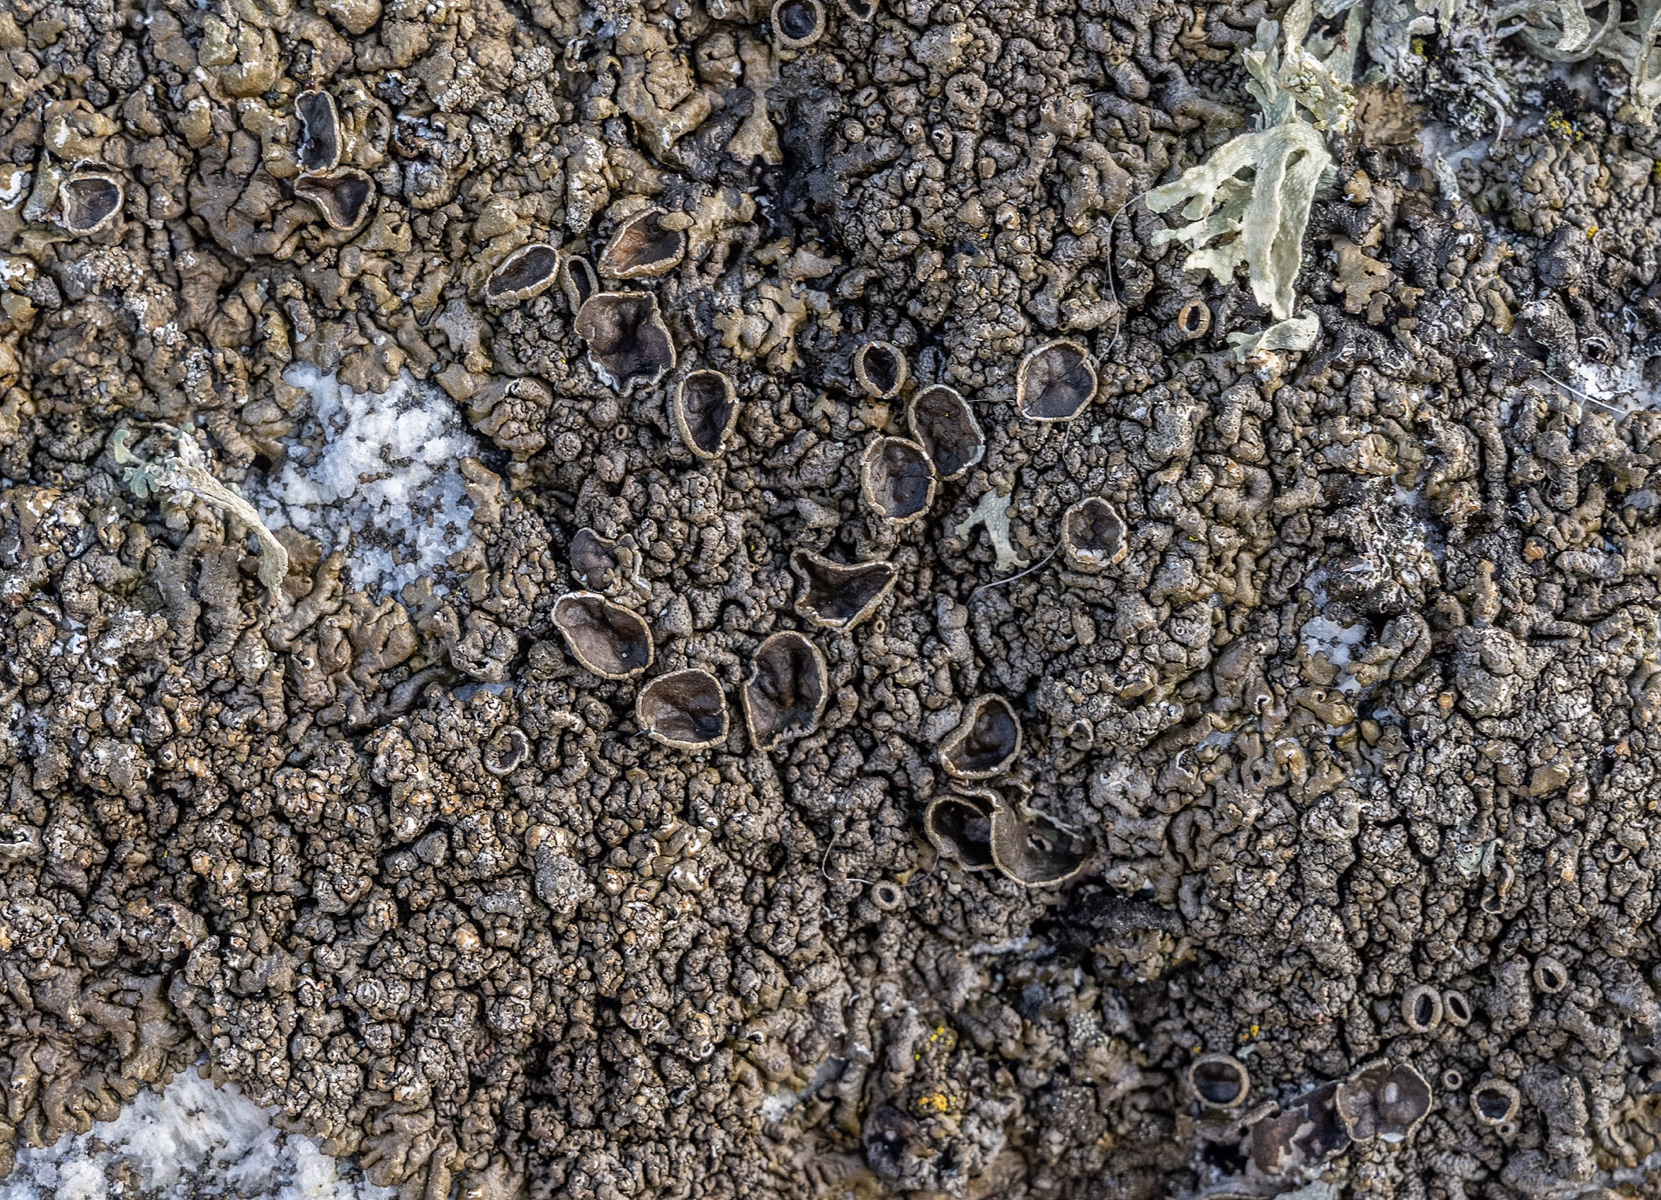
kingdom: Fungi
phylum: Ascomycota
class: Lecanoromycetes
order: Lecanorales
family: Parmeliaceae
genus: Xanthoparmelia
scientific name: Xanthoparmelia pulla
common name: mørkebrun skållav
